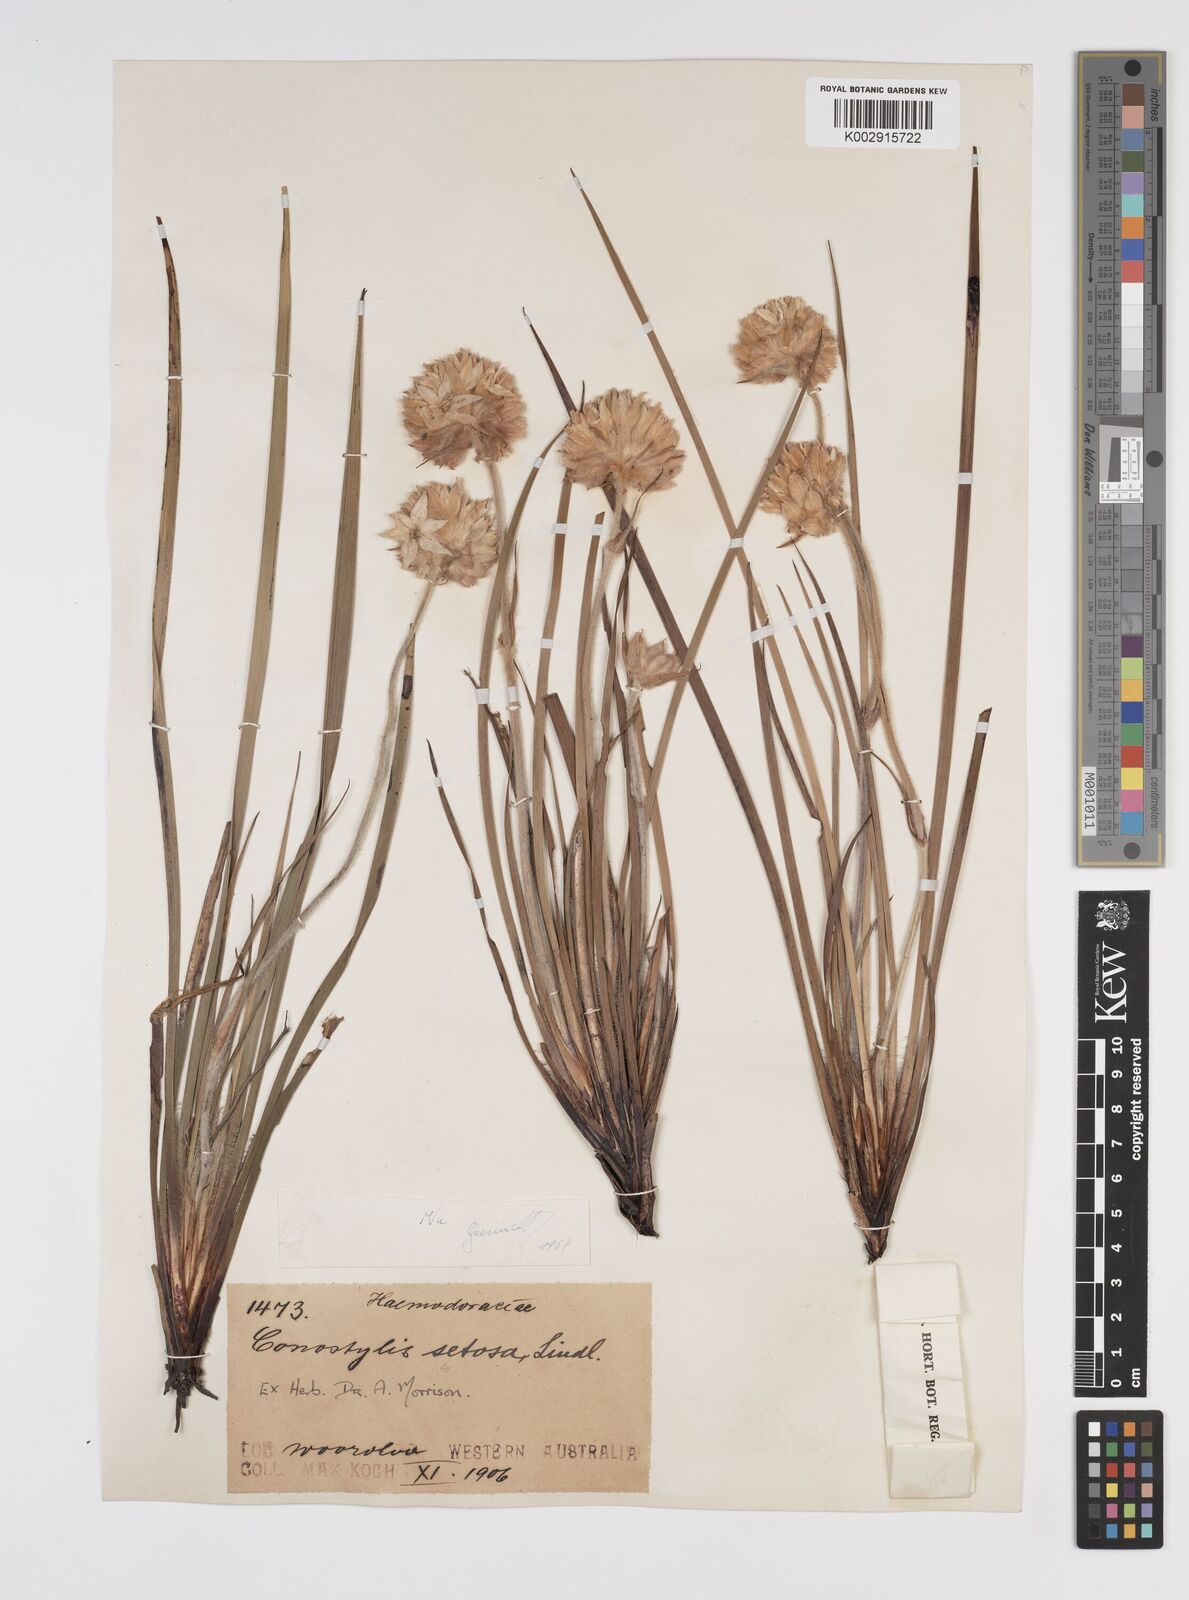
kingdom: Plantae
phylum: Tracheophyta
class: Liliopsida
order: Commelinales
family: Haemodoraceae
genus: Conostylis
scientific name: Conostylis setosa
